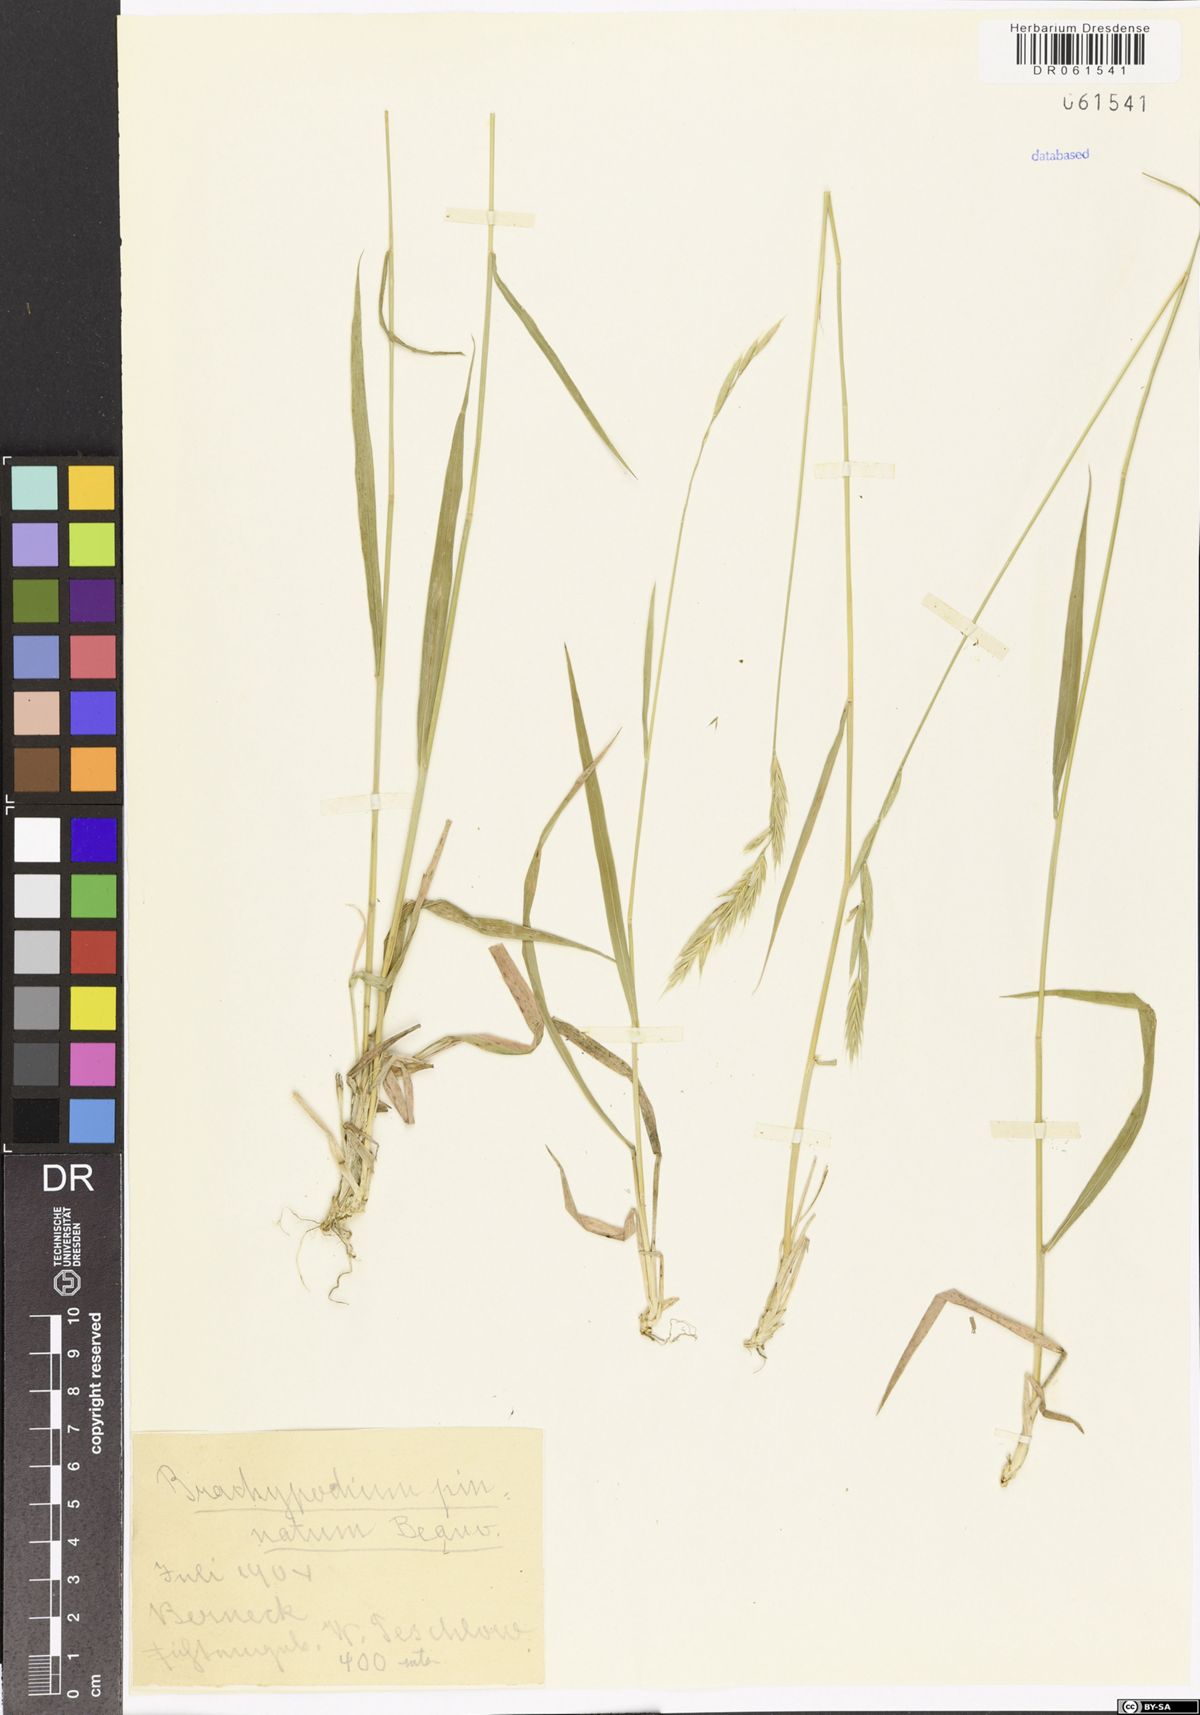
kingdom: Plantae
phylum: Tracheophyta
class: Liliopsida
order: Poales
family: Poaceae
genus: Brachypodium
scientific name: Brachypodium pinnatum
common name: Tor grass
